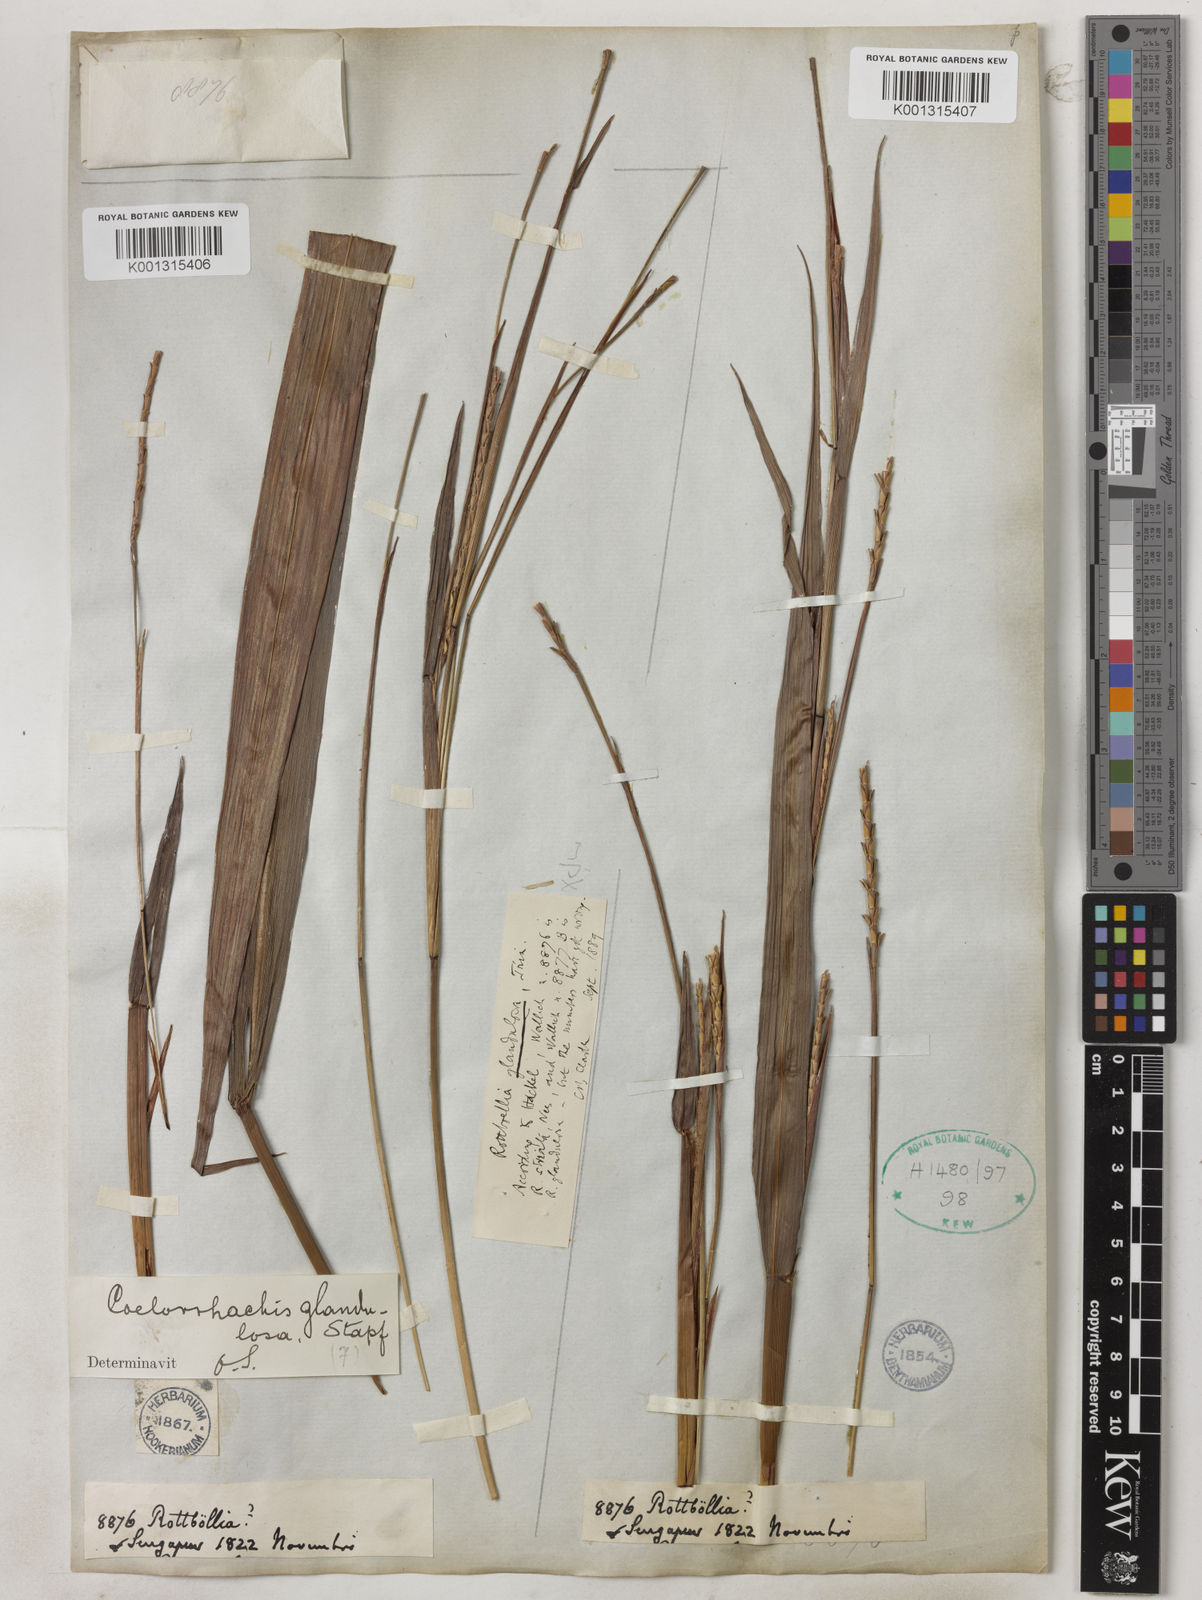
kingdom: Plantae
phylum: Tracheophyta
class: Liliopsida
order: Poales
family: Poaceae
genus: Rottboellia
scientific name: Rottboellia glandulosa
